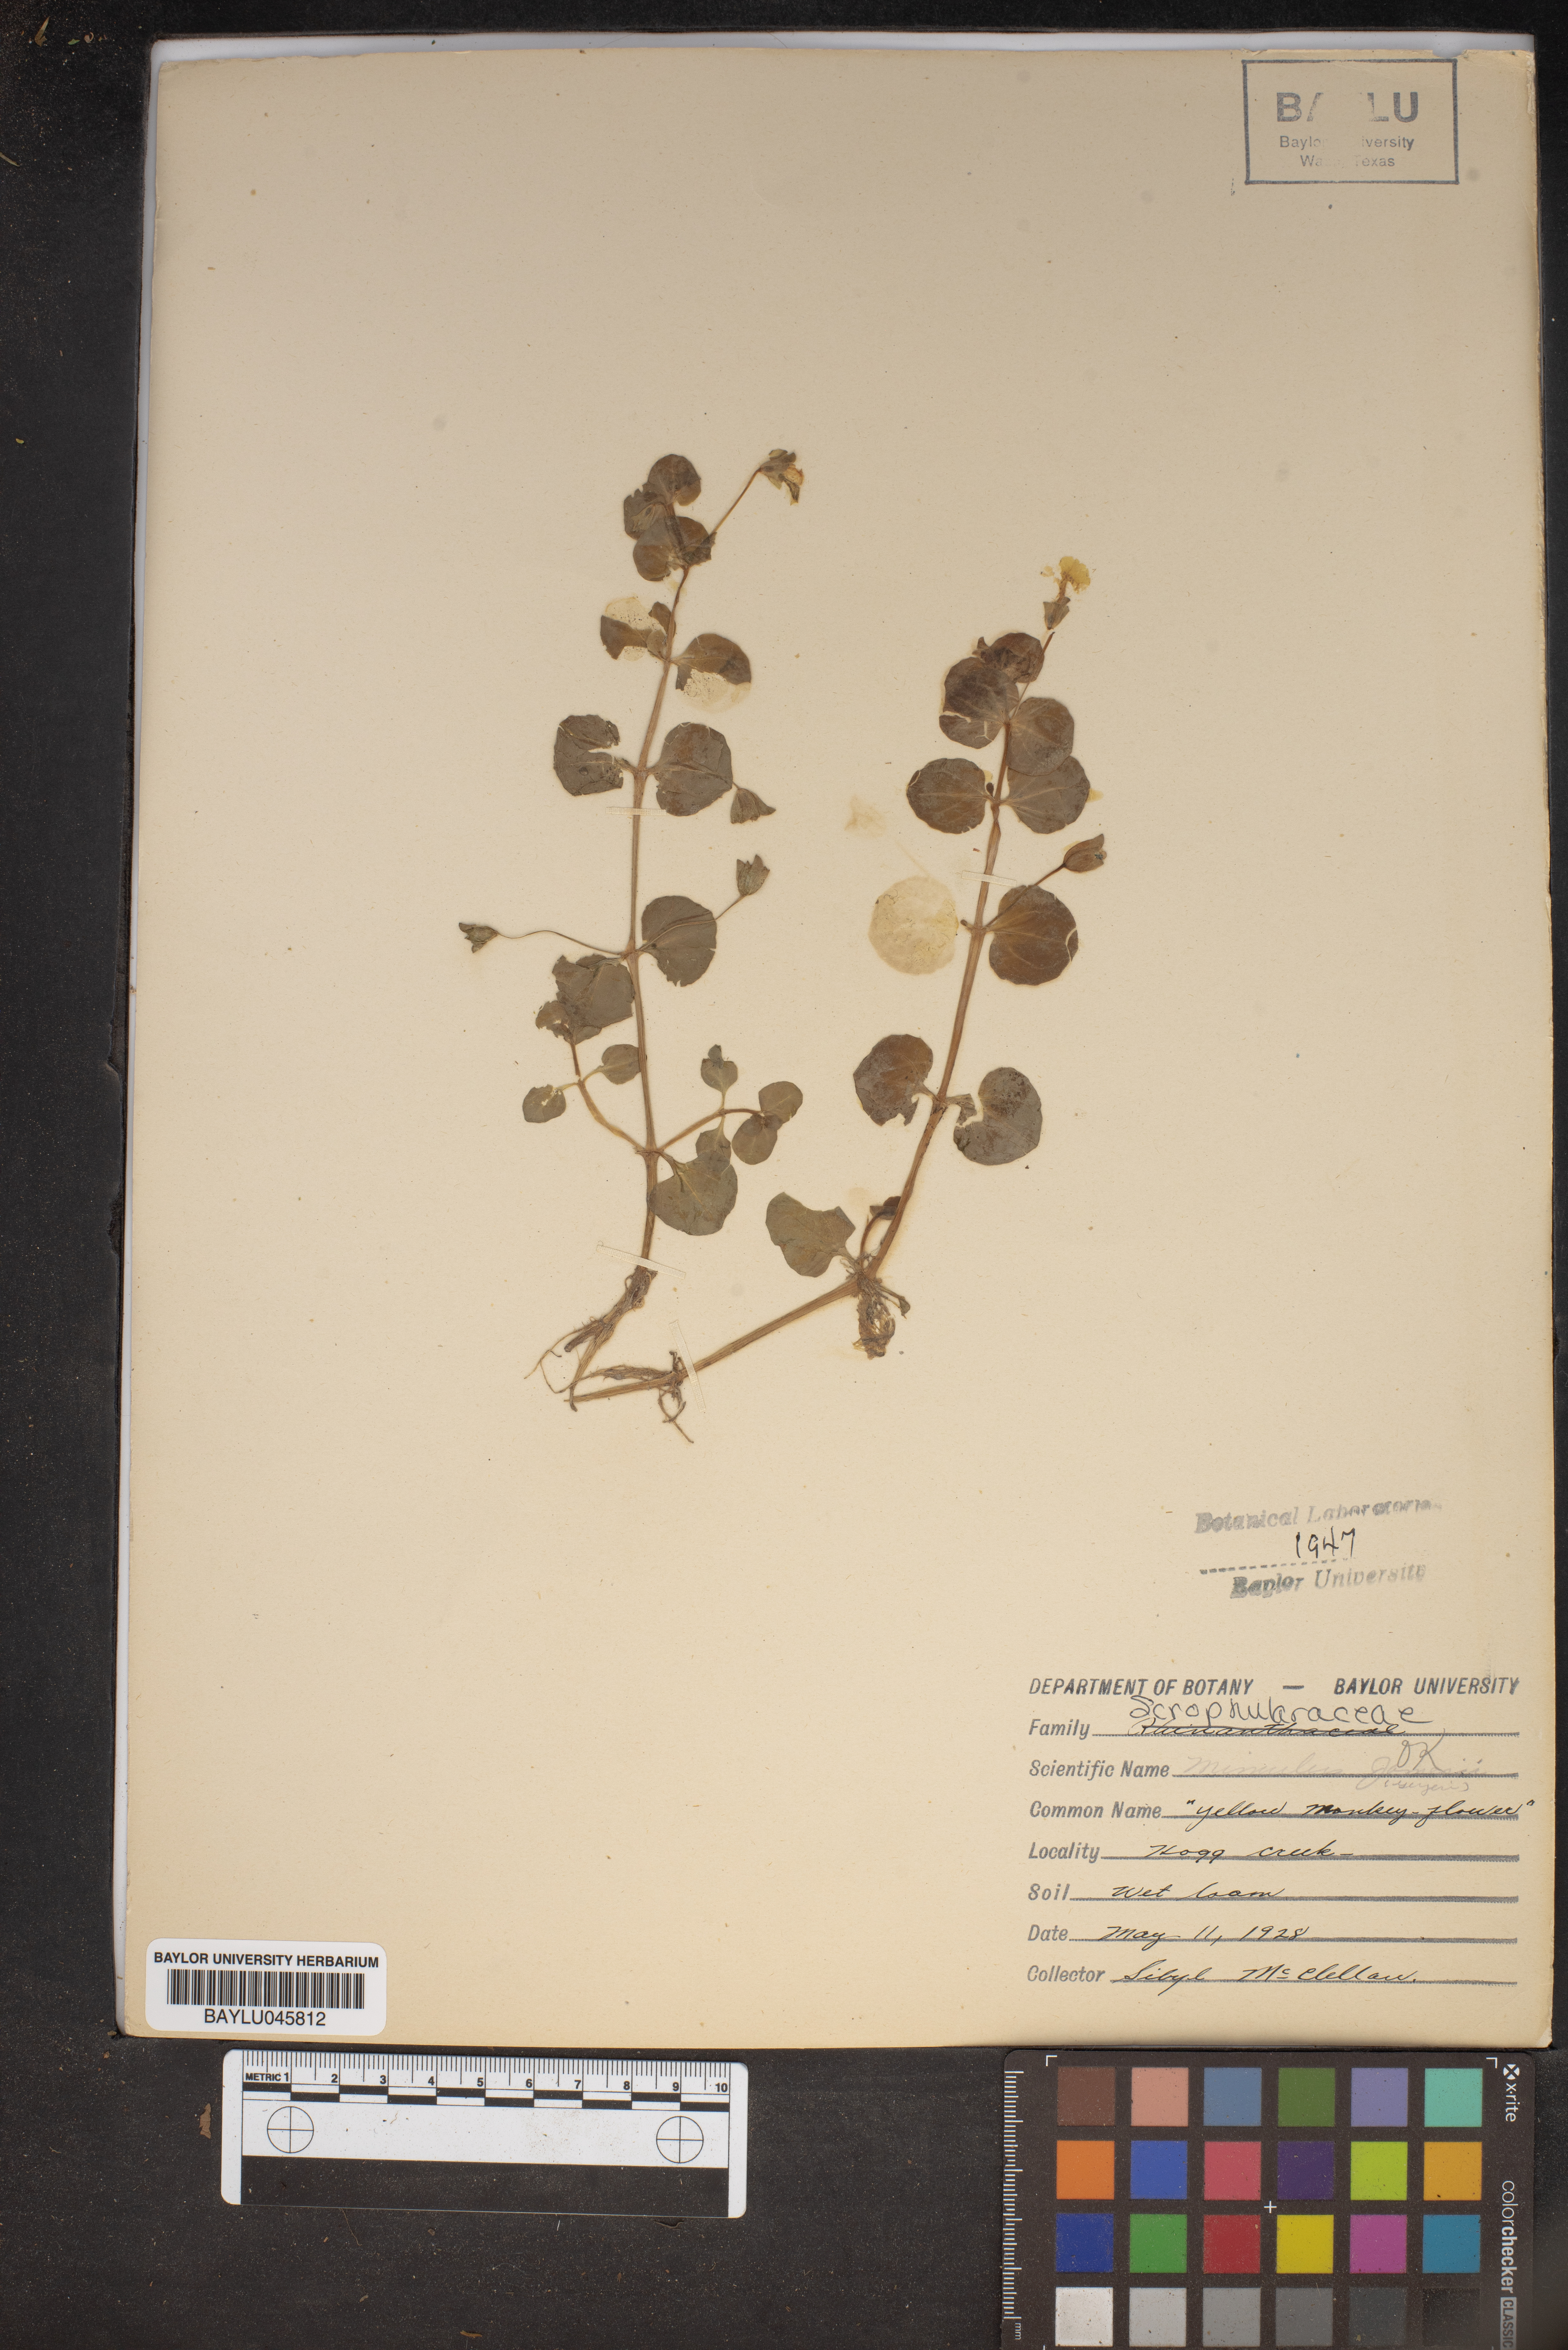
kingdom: Plantae
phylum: Tracheophyta
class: Magnoliopsida
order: Lamiales
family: Phrymaceae
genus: Erythranthe
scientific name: Erythranthe geyeri
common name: Geyer's monkeyflower
